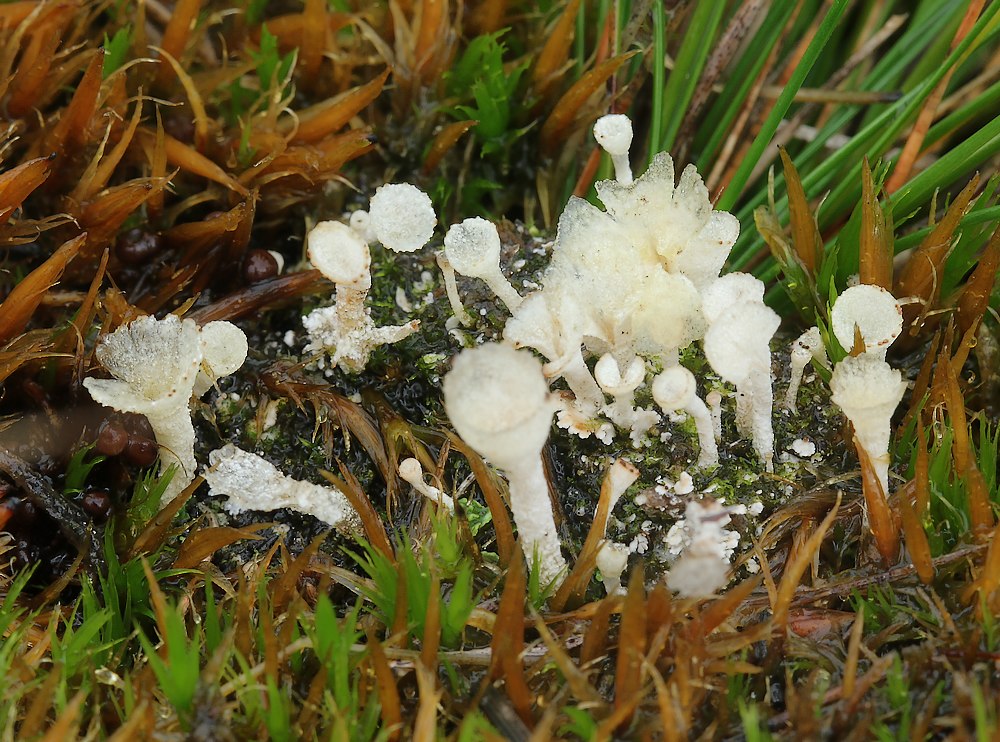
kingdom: Fungi
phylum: Ascomycota
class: Lecanoromycetes
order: Lecanorales
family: Cladoniaceae
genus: Cladonia
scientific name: Cladonia
